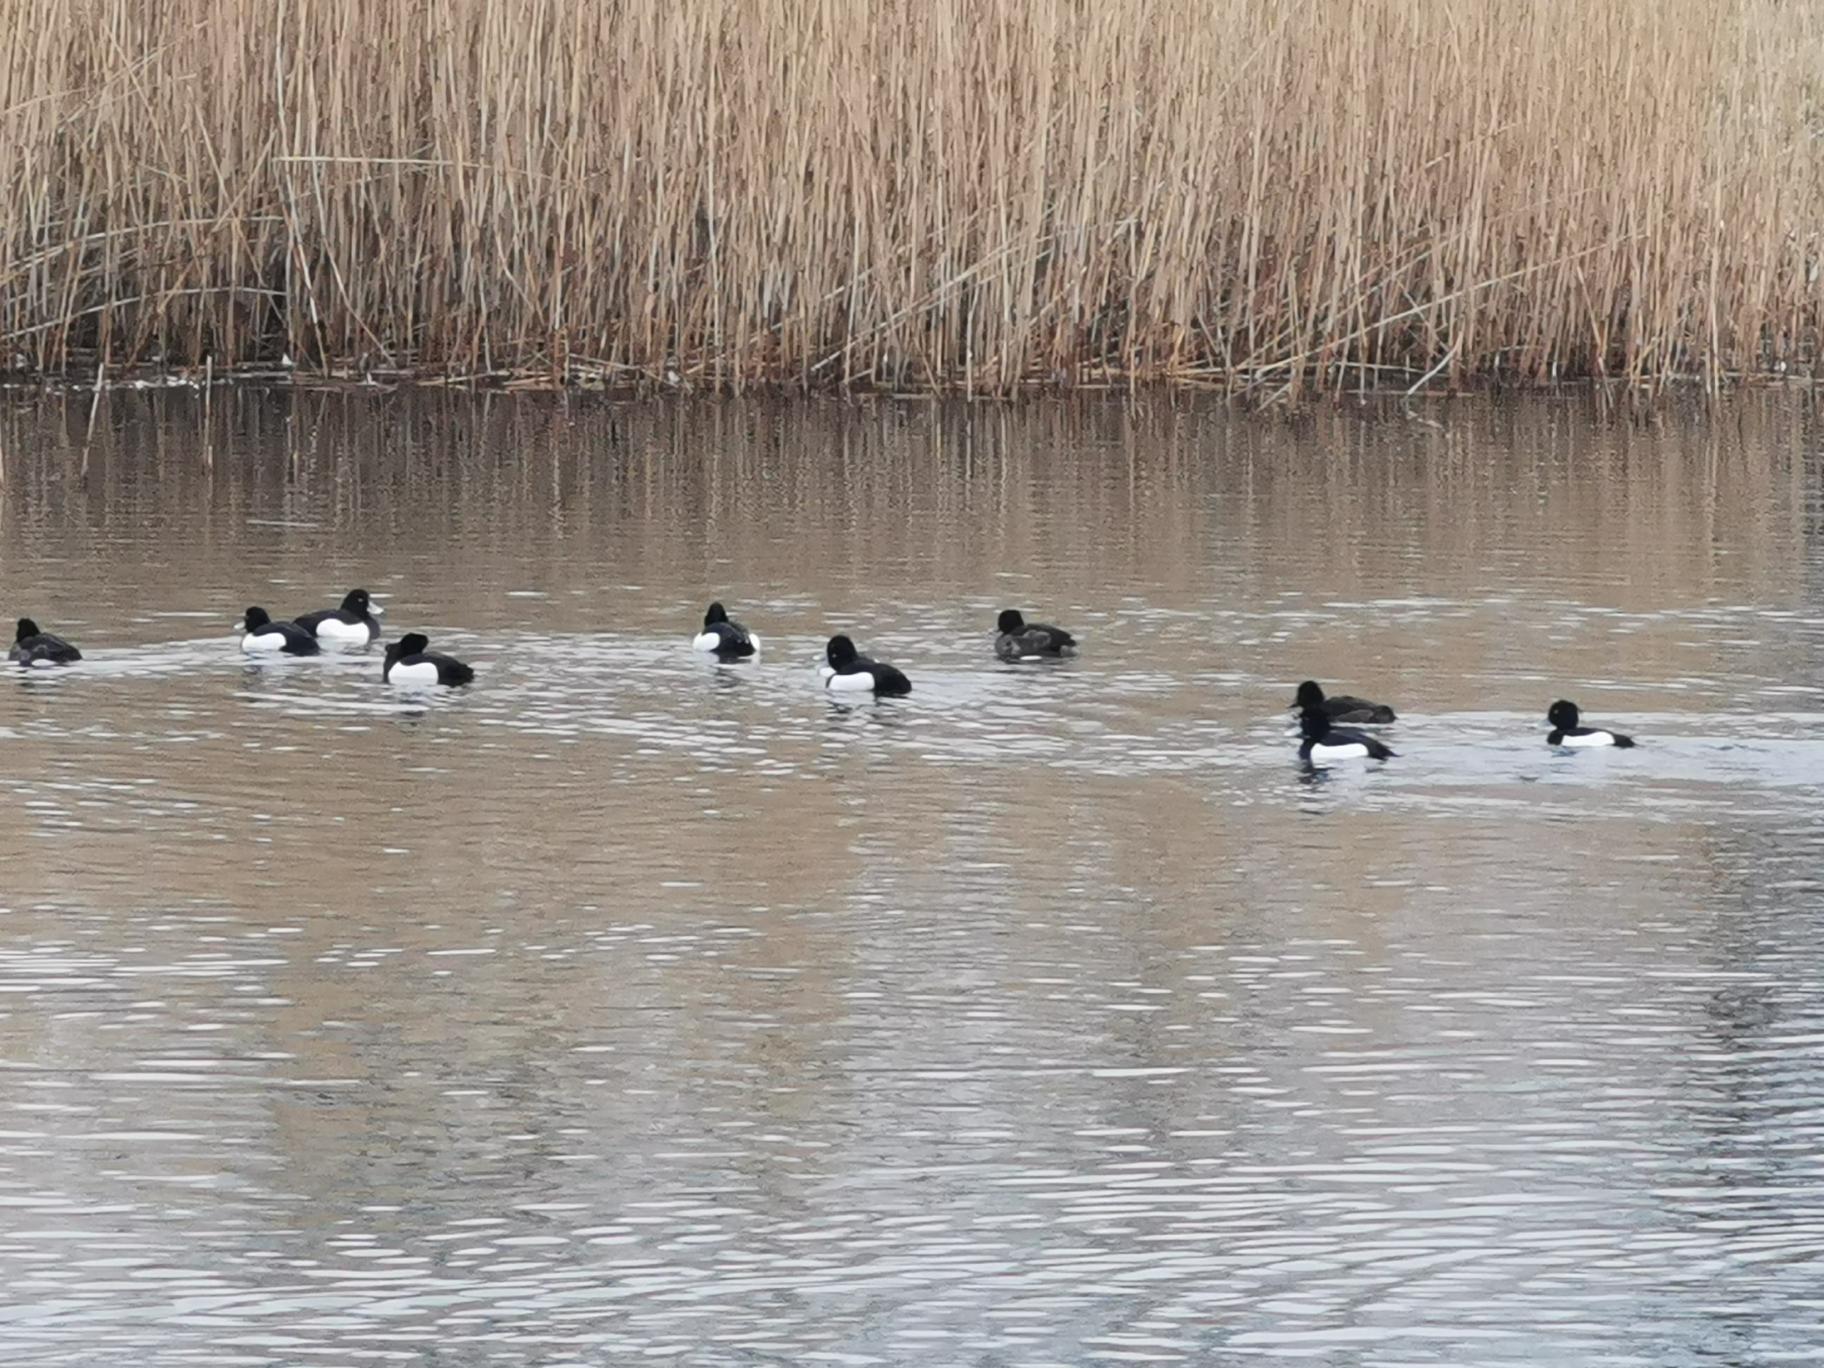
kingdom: Animalia
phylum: Chordata
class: Aves
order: Anseriformes
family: Anatidae
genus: Aythya
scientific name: Aythya fuligula
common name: Troldand
